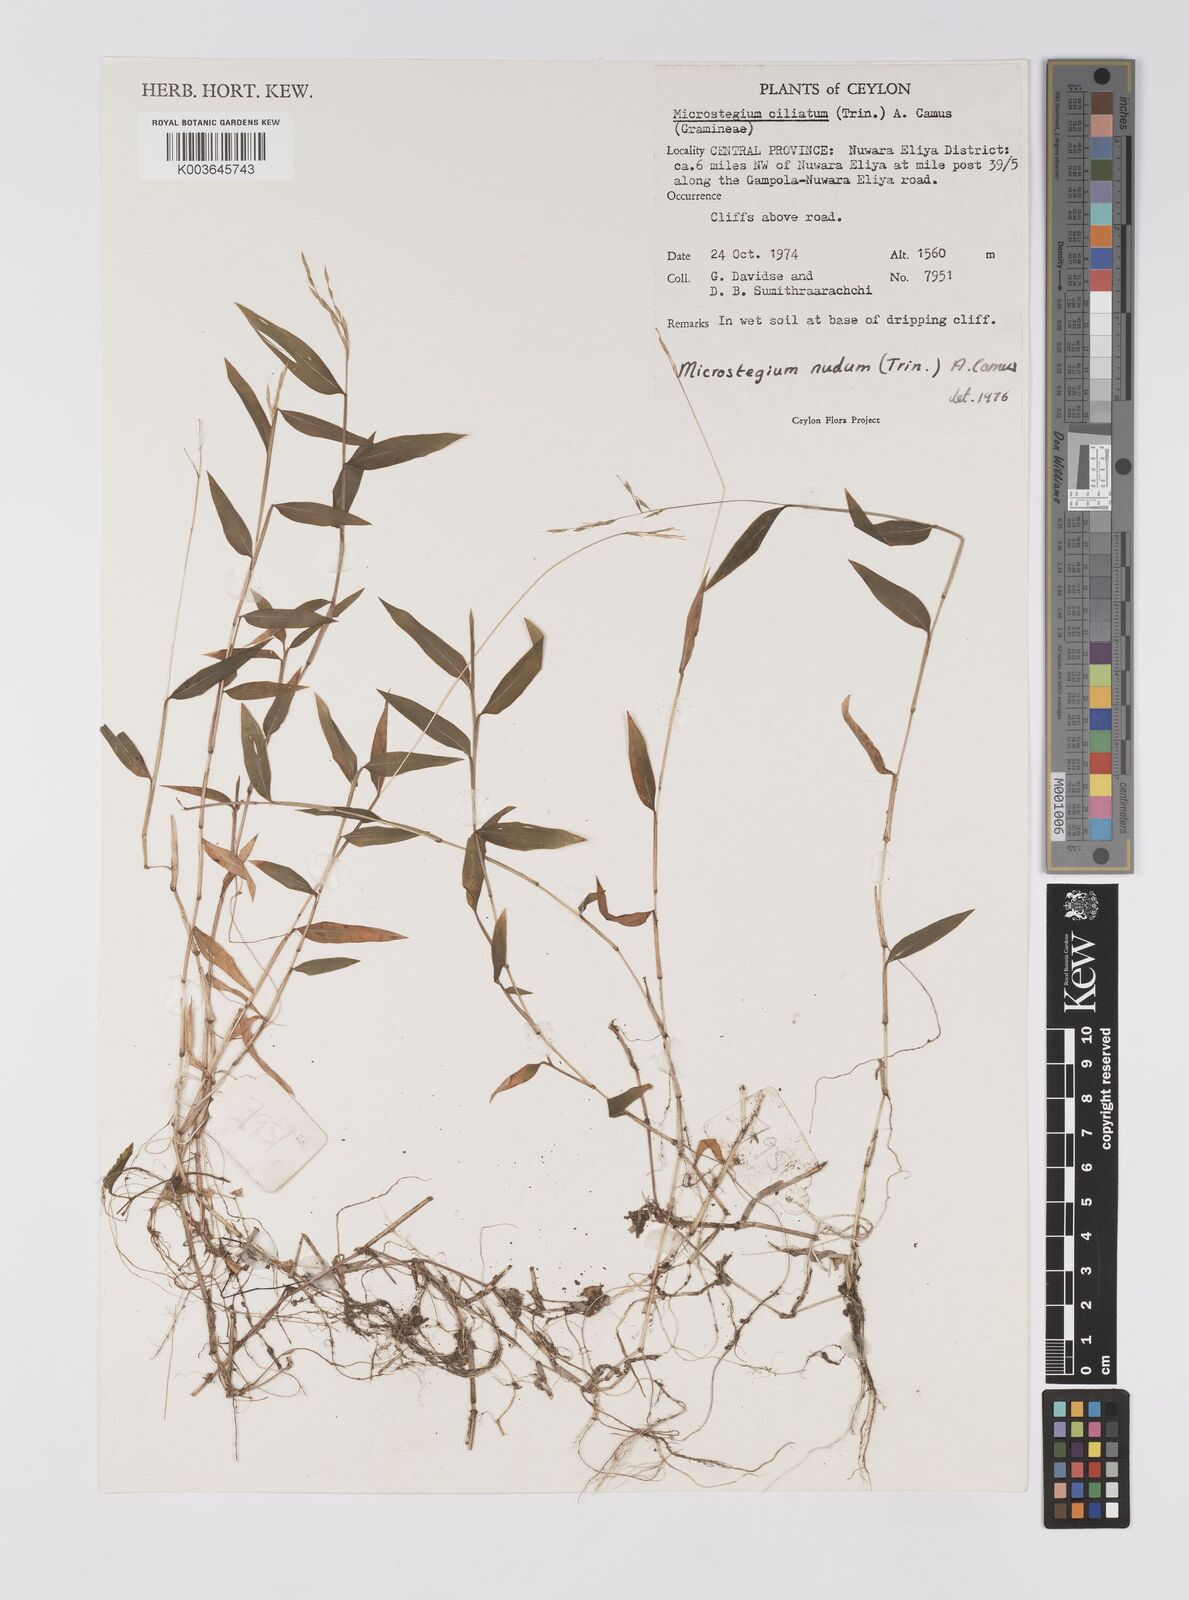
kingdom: Plantae
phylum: Tracheophyta
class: Liliopsida
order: Poales
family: Poaceae
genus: Microstegium
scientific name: Microstegium nudum
